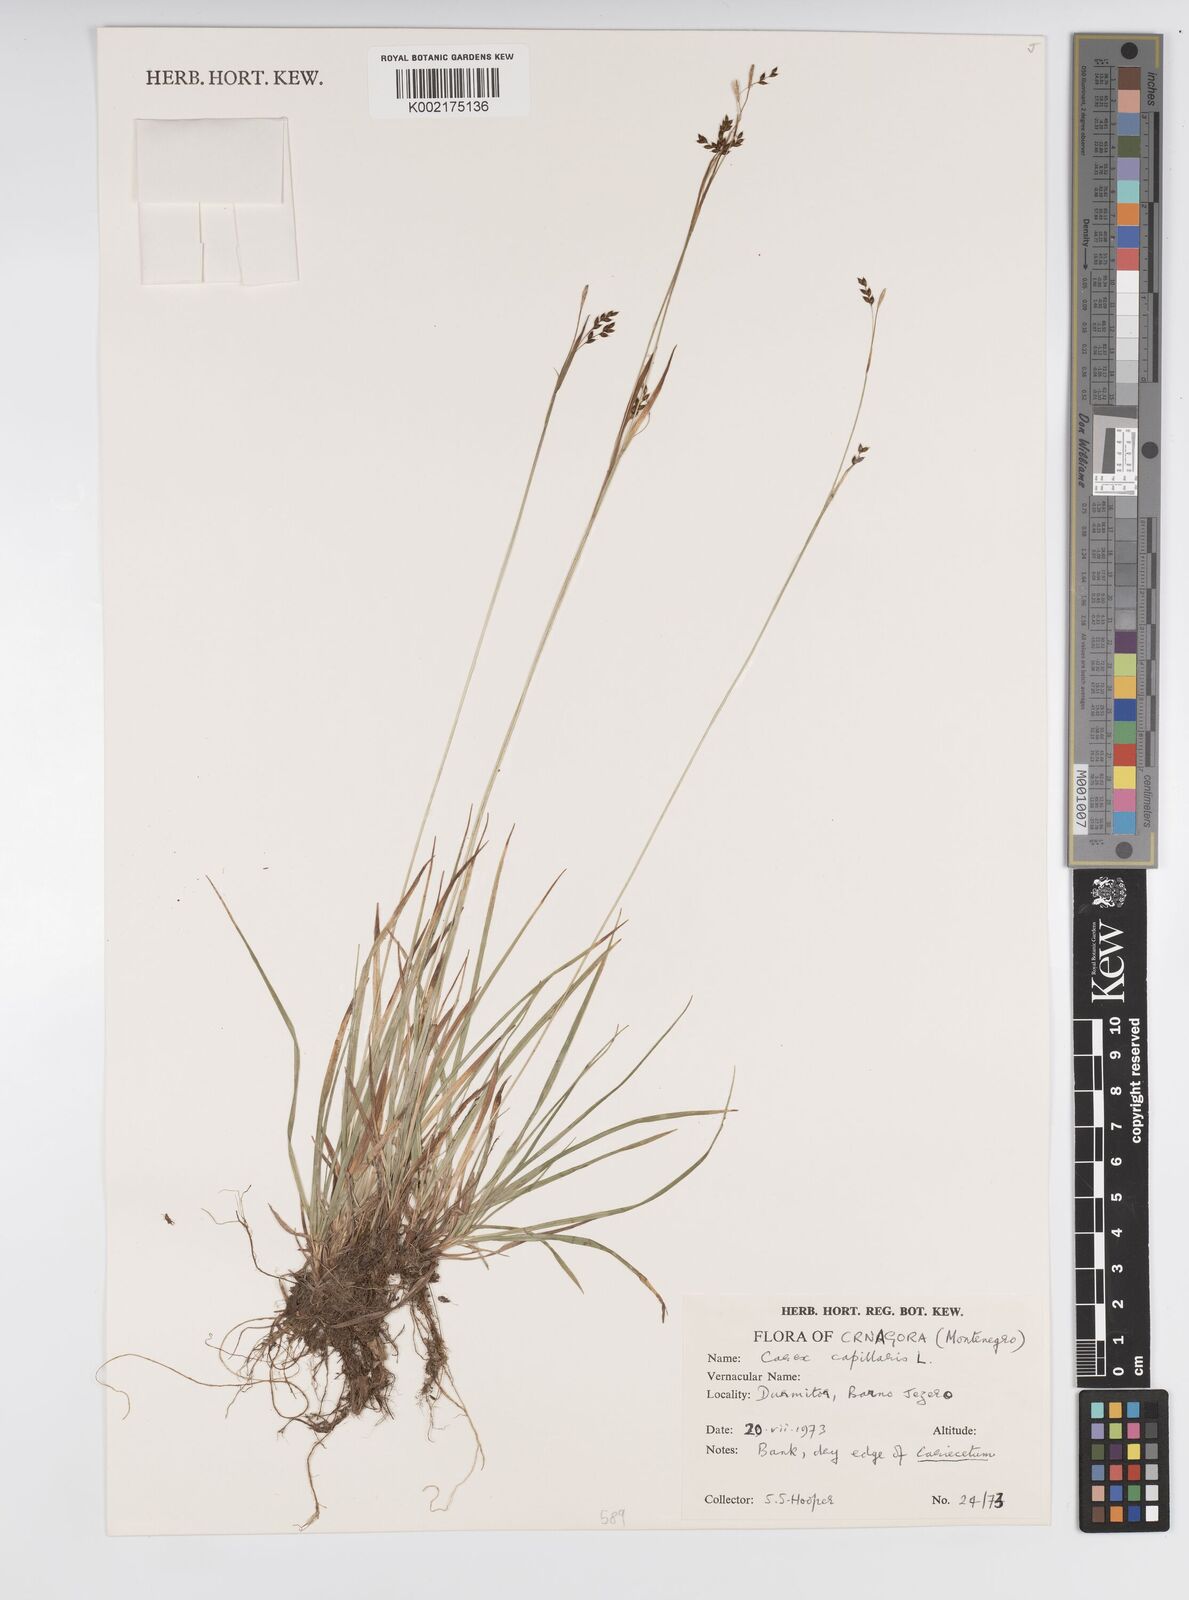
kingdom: Plantae
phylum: Tracheophyta
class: Liliopsida
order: Poales
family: Cyperaceae
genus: Carex
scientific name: Carex capillaris
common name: Hair sedge
